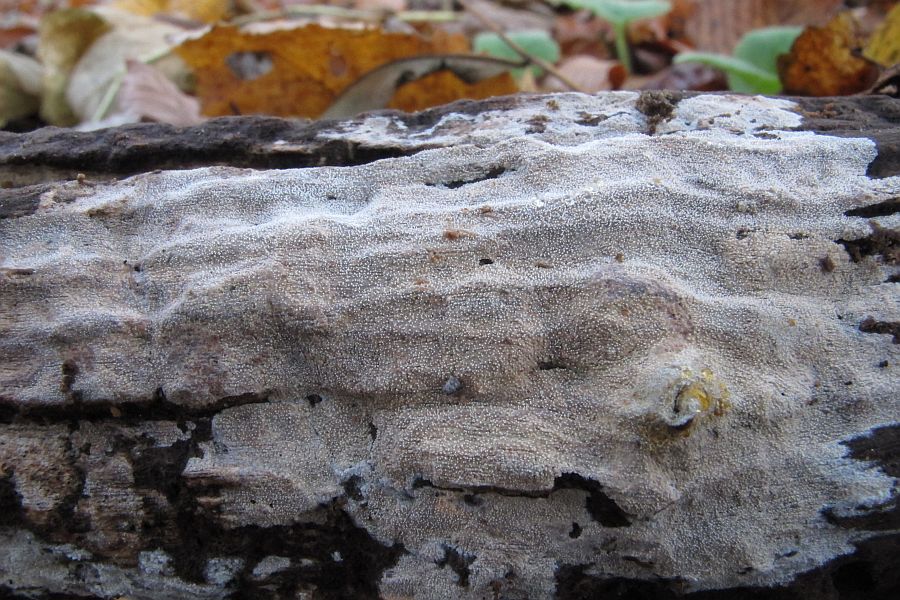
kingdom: Fungi
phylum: Basidiomycota
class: Agaricomycetes
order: Corticiales
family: Corticiaceae
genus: Lyomyces
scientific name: Lyomyces crustosus
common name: vortet hyldehinde
